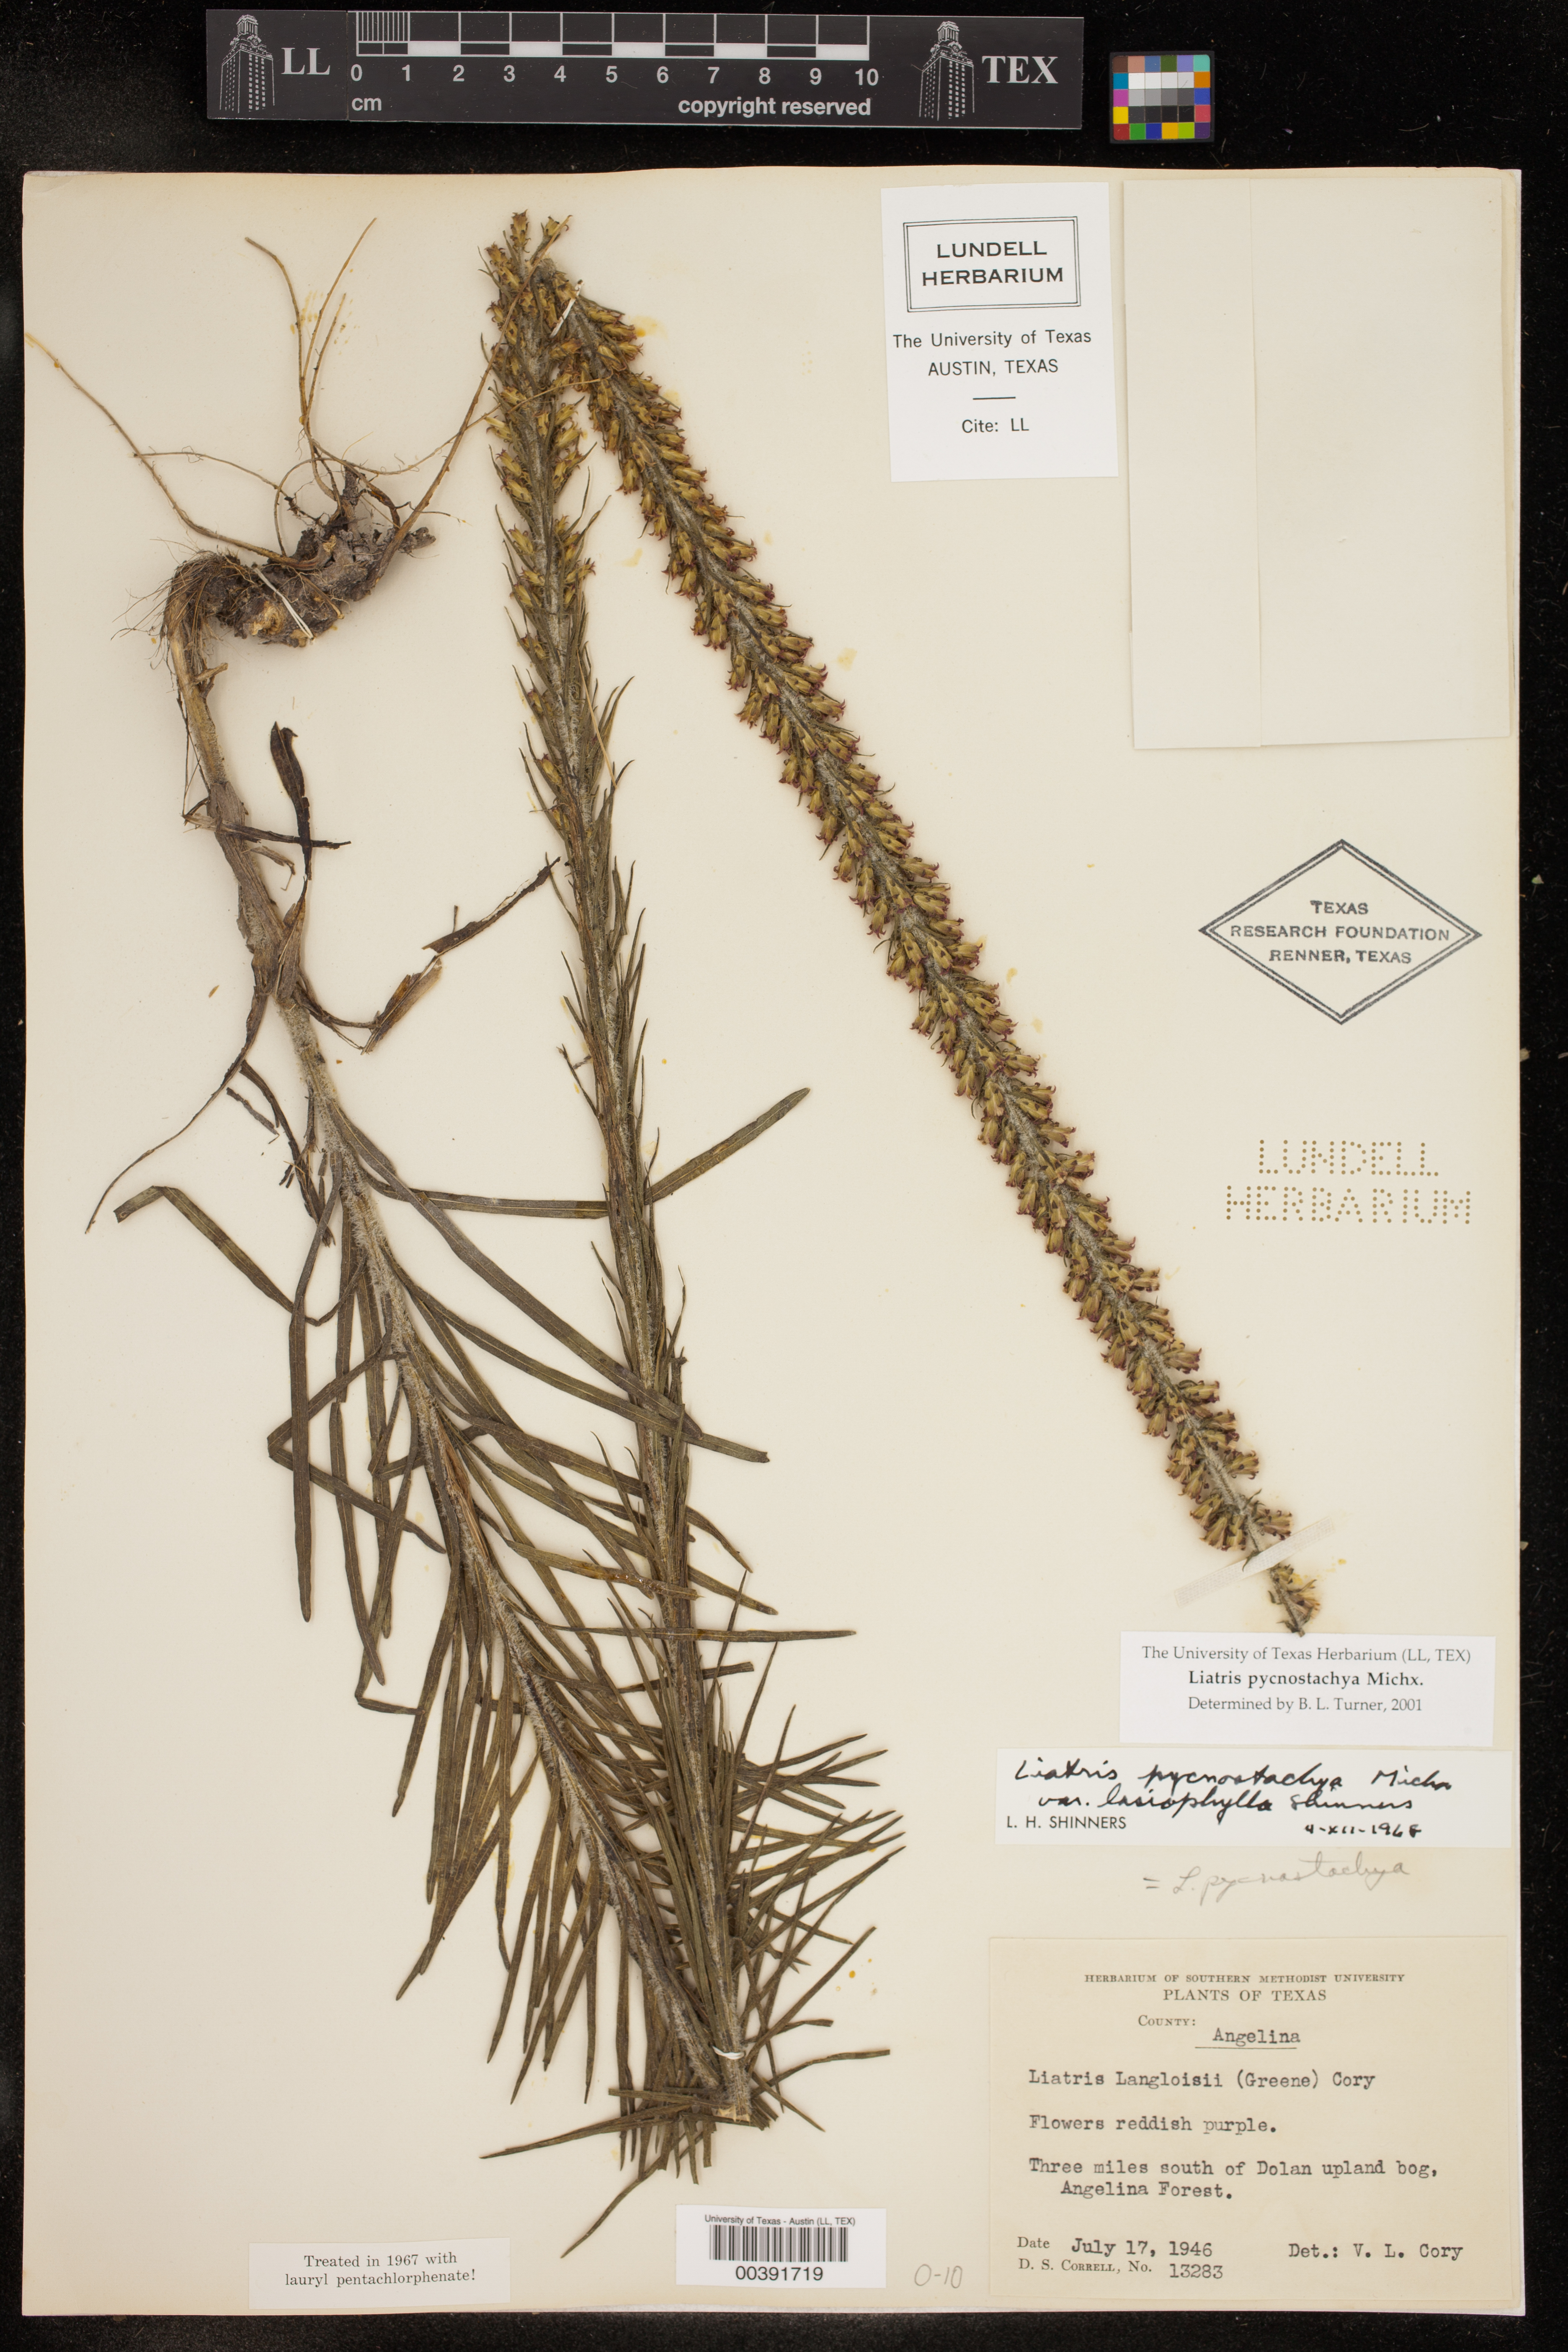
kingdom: Plantae
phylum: Tracheophyta
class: Magnoliopsida
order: Asterales
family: Asteraceae
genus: Liatris
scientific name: Liatris pycnostachya
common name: Cattail gayfeather
